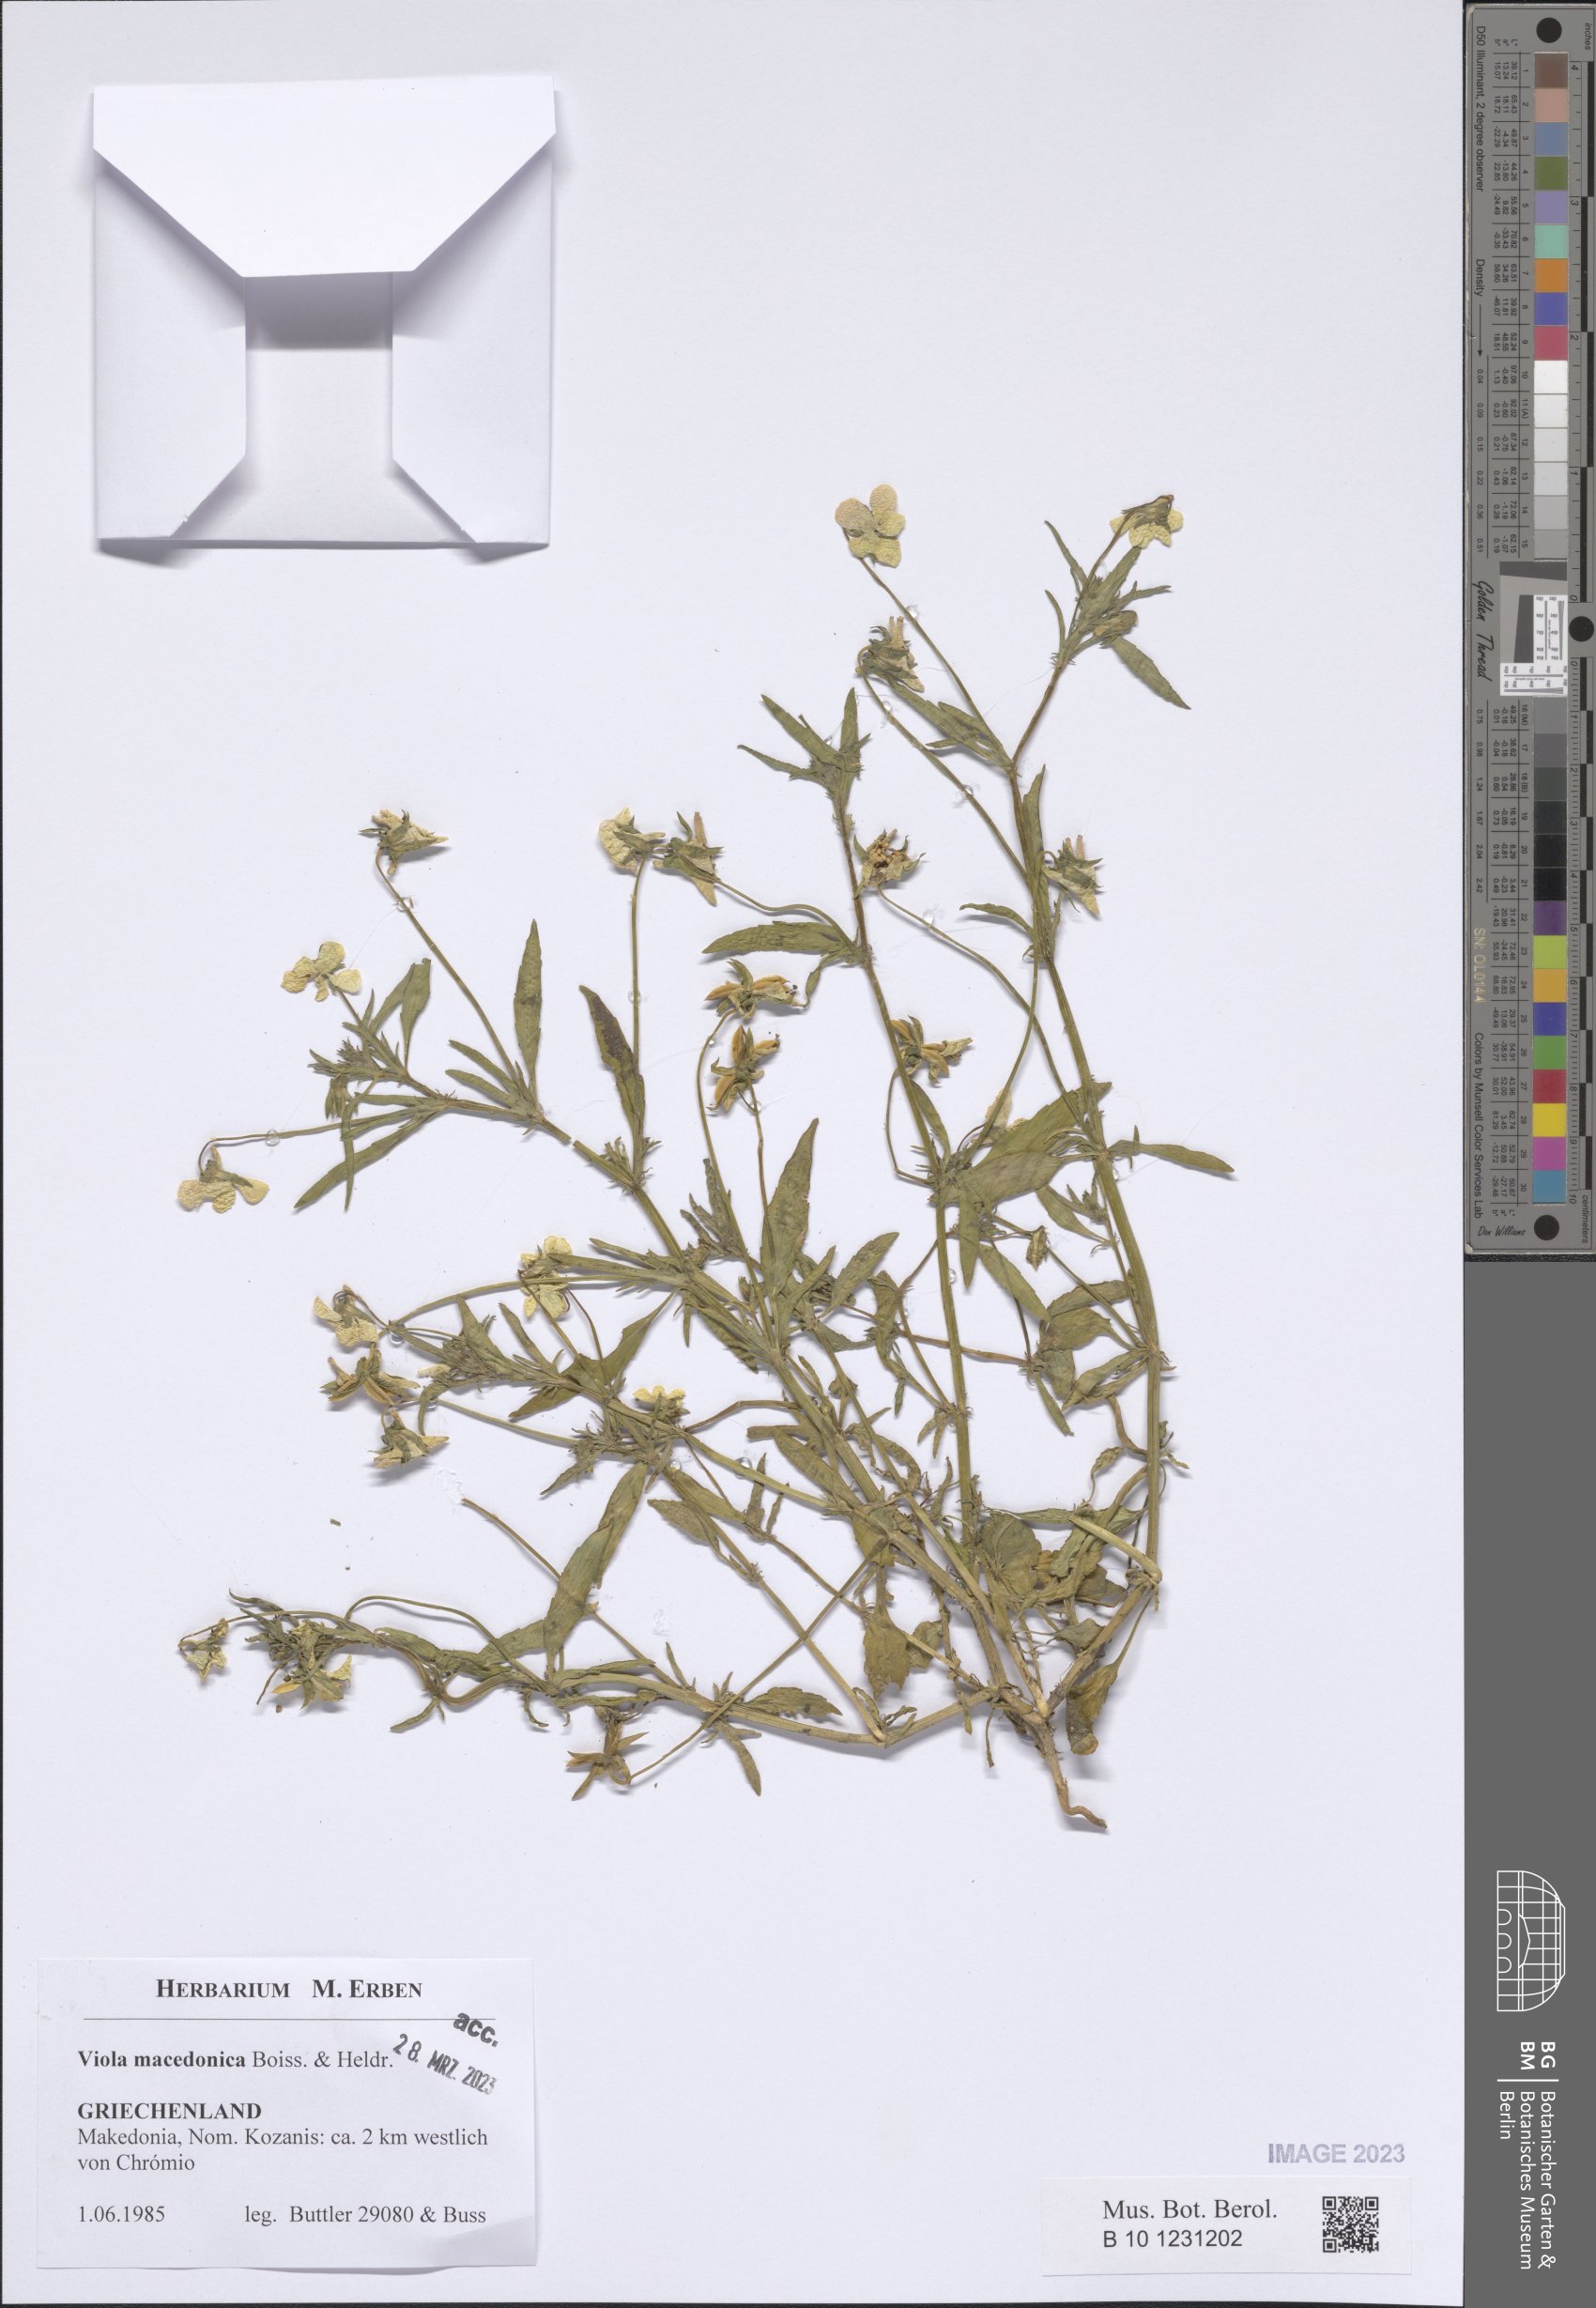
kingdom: Plantae
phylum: Tracheophyta
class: Magnoliopsida
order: Malpighiales
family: Violaceae
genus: Viola
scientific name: Viola tricolor
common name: Pansy
